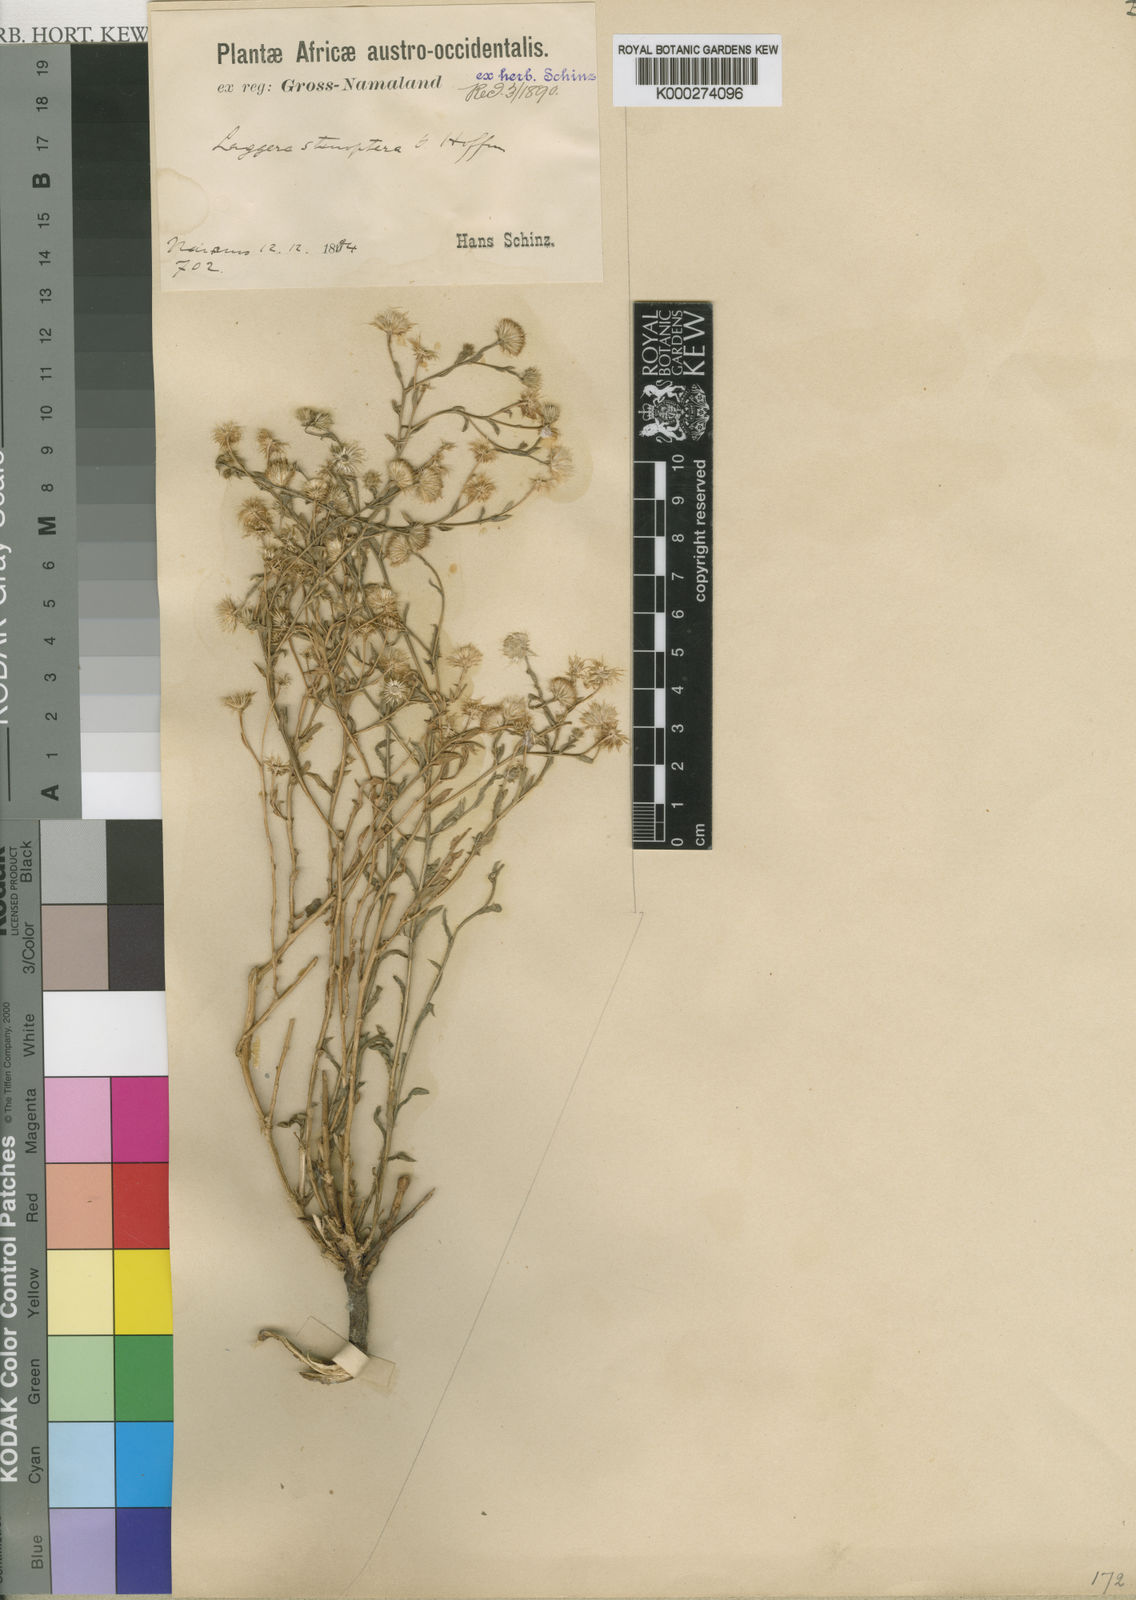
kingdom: Plantae
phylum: Tracheophyta
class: Magnoliopsida
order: Asterales
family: Asteraceae
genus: Nicolasia
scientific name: Nicolasia stenoptera
